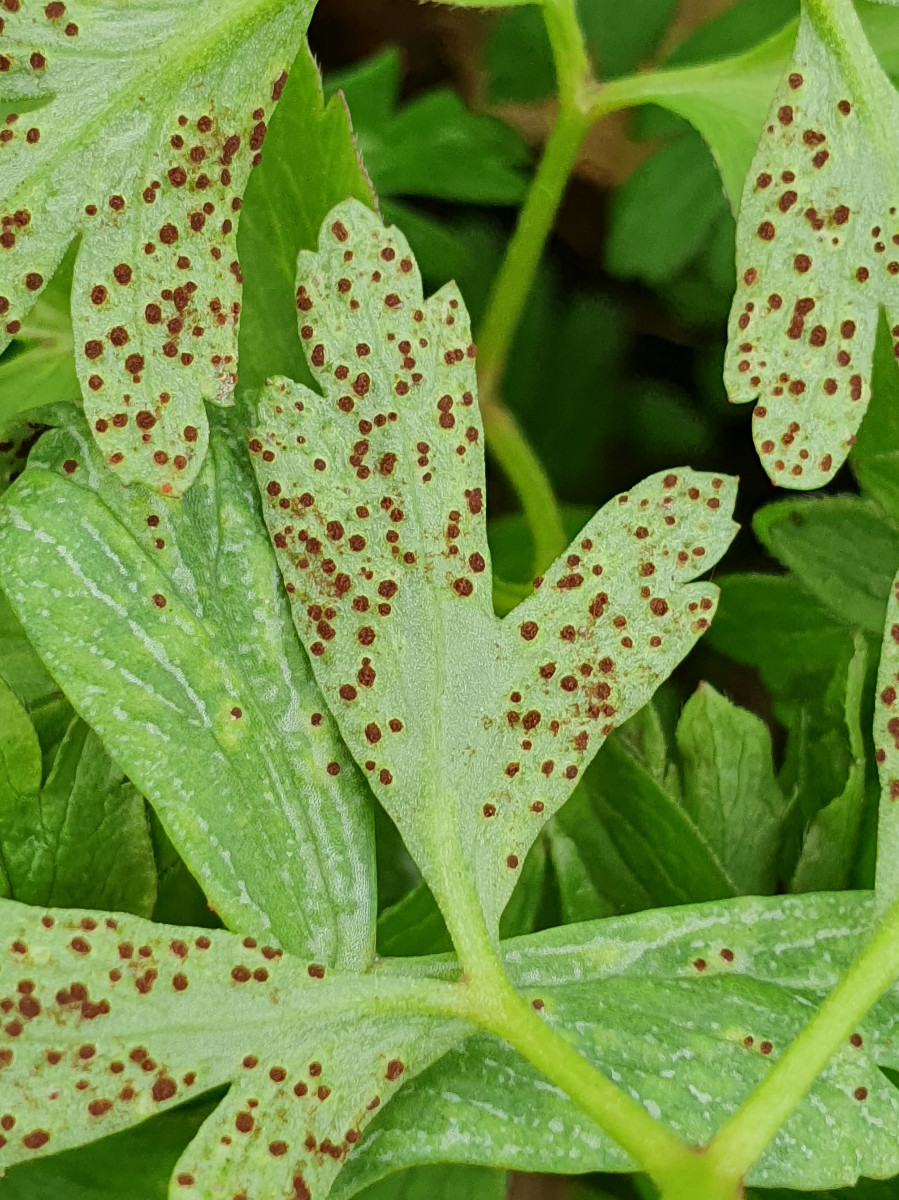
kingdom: Fungi
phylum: Basidiomycota
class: Pucciniomycetes
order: Pucciniales
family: Tranzscheliaceae
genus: Tranzschelia
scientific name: Tranzschelia anemones
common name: anemone-knæksporerust
